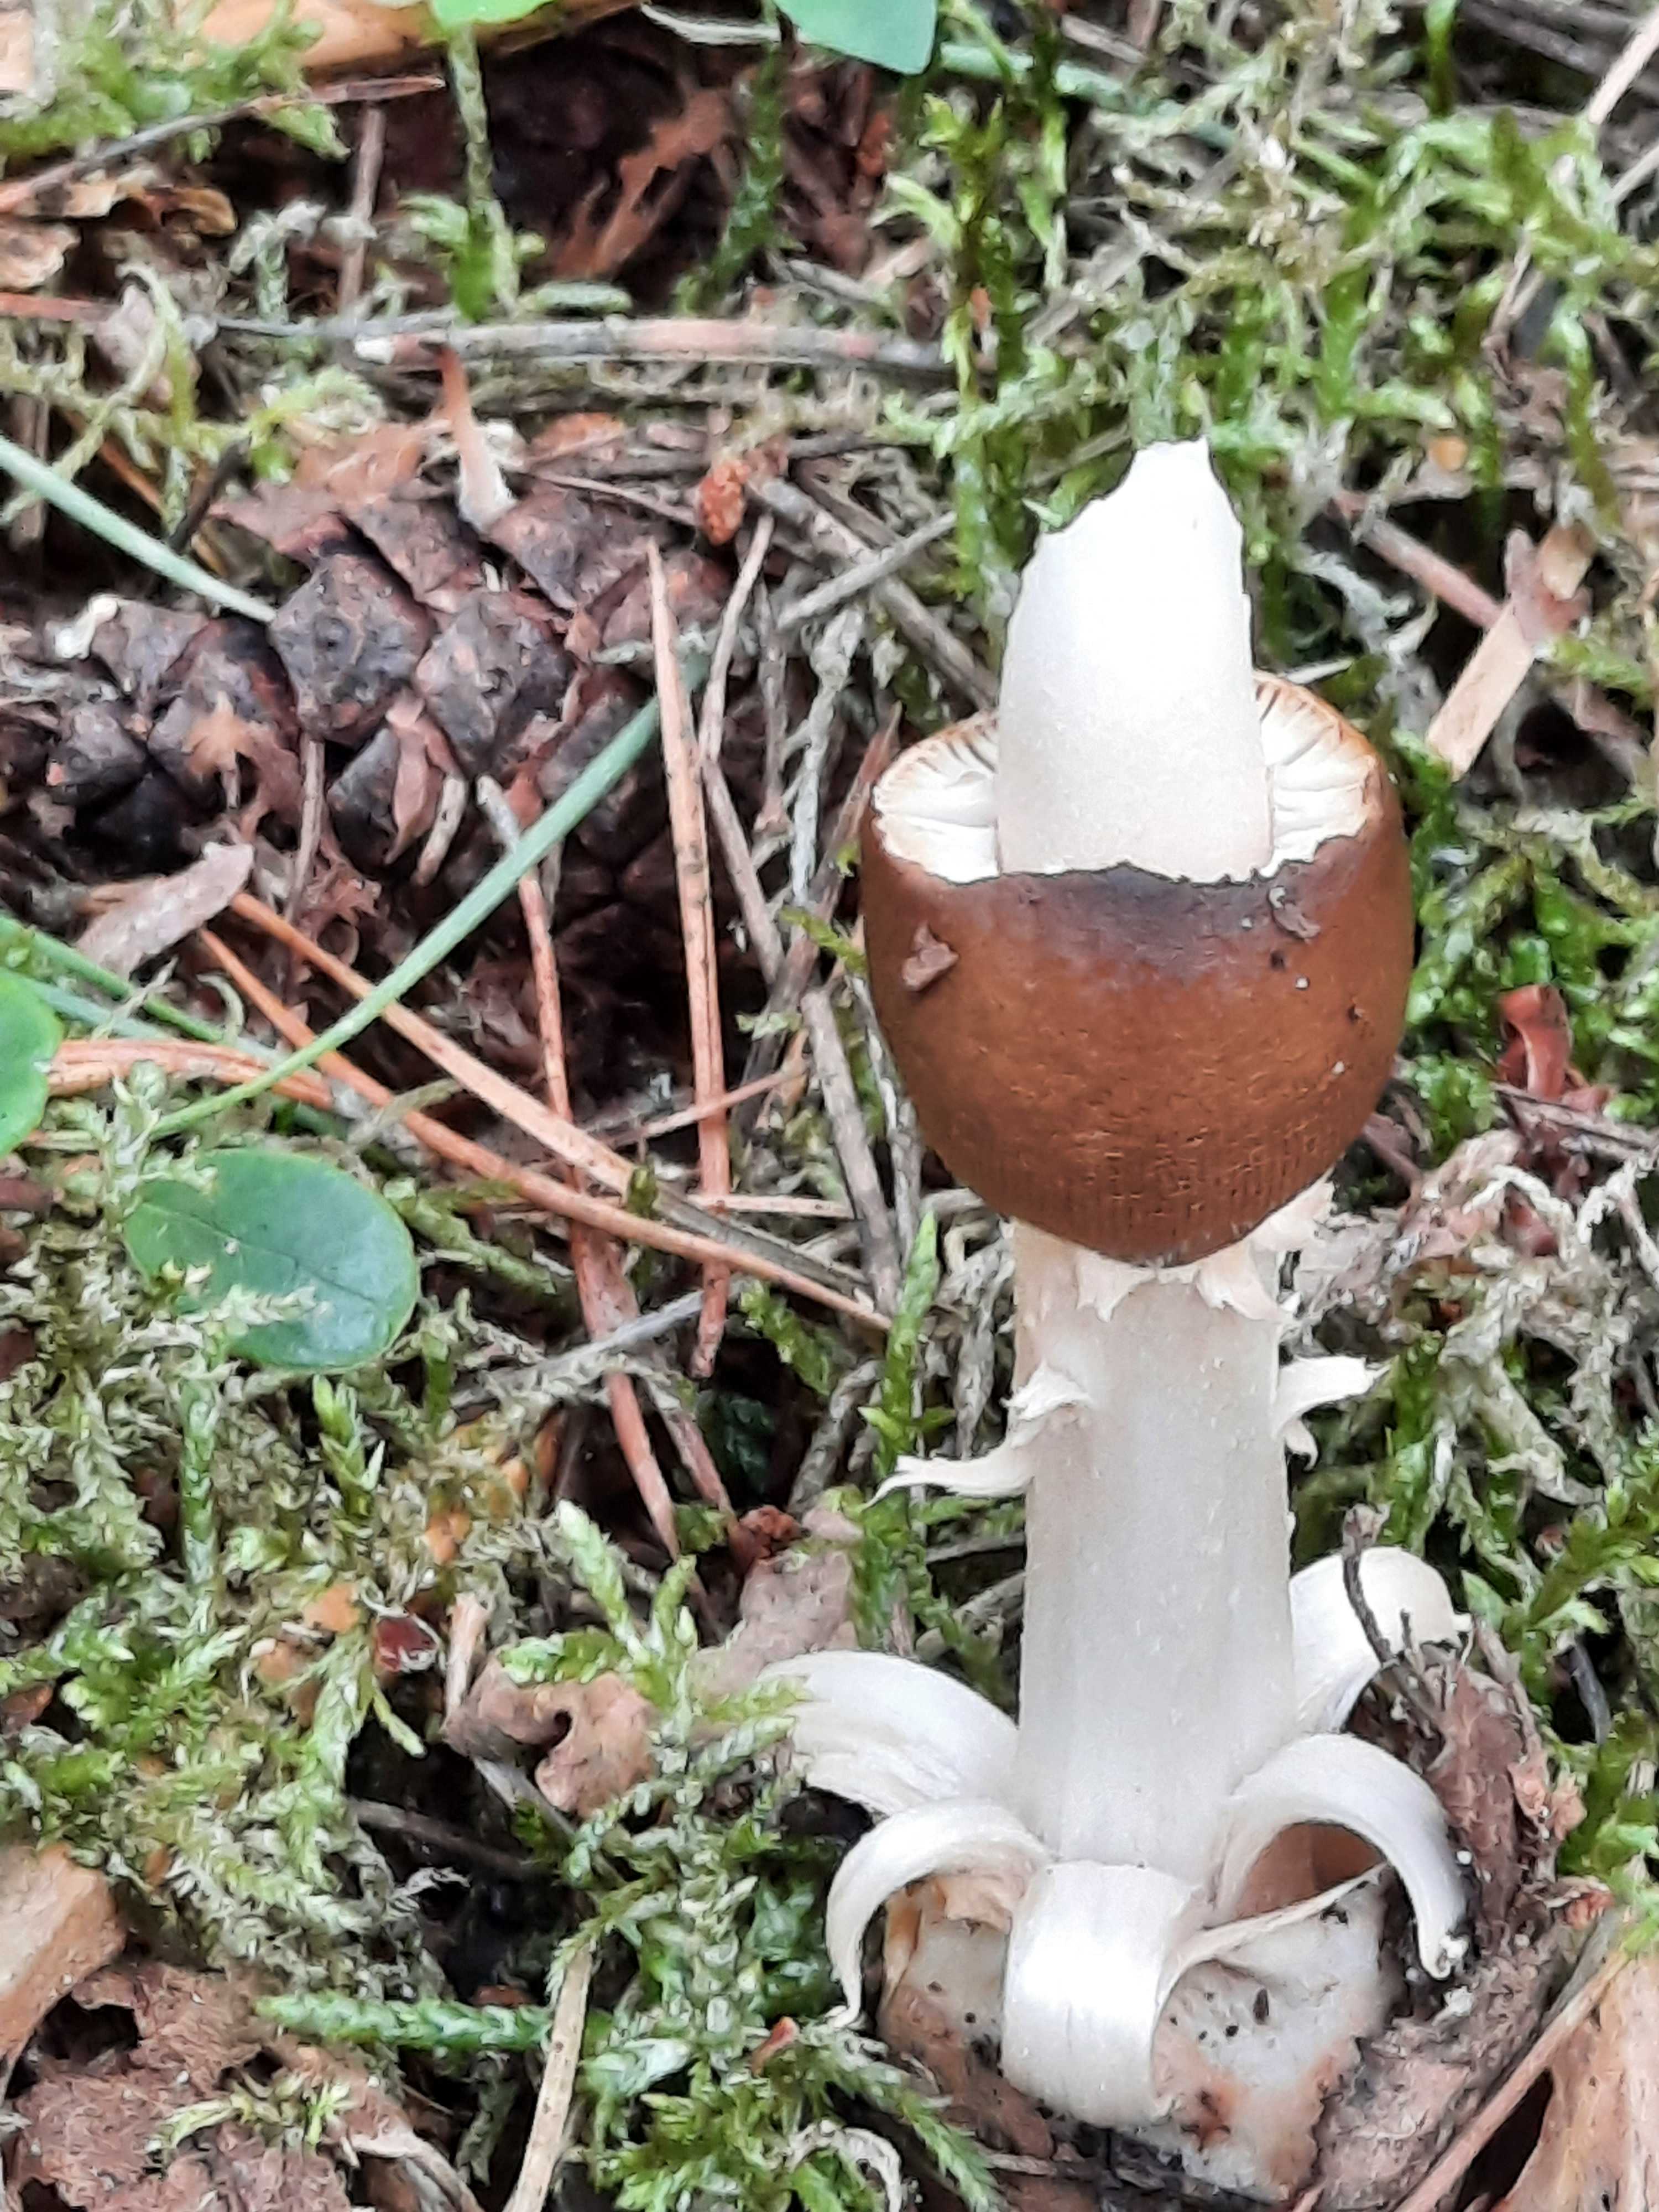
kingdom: Fungi
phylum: Basidiomycota
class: Agaricomycetes
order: Agaricales
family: Amanitaceae
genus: Amanita
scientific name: Amanita fulva
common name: brun kam-fluesvamp
